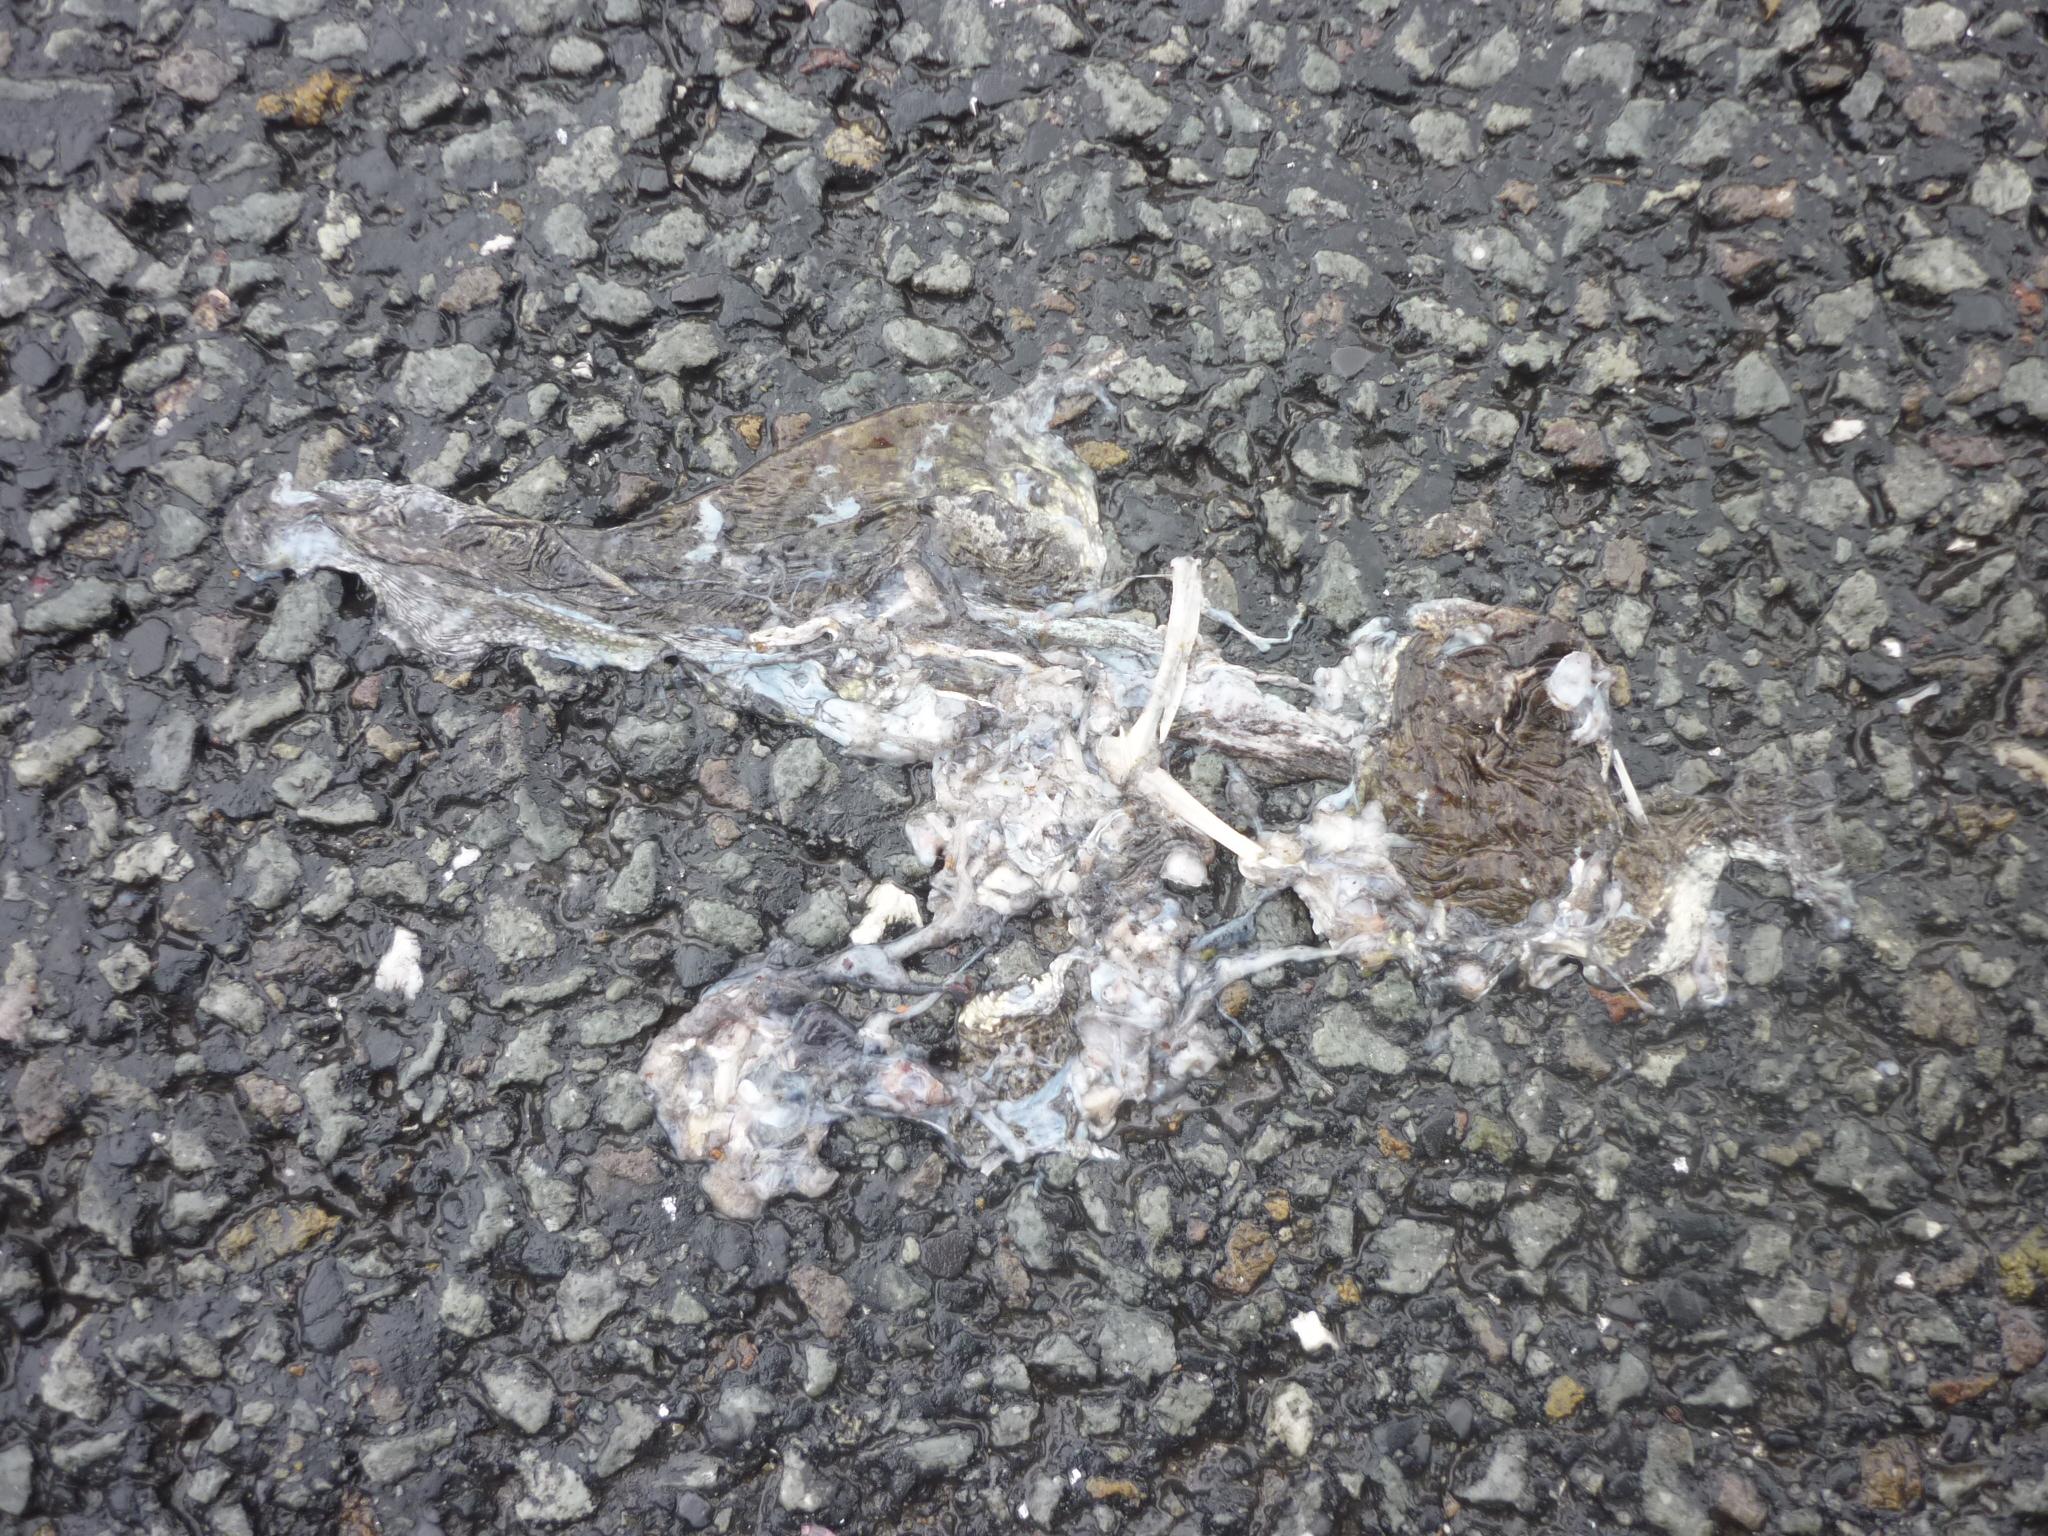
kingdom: Animalia
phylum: Chordata
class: Amphibia
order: Anura
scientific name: Anura
